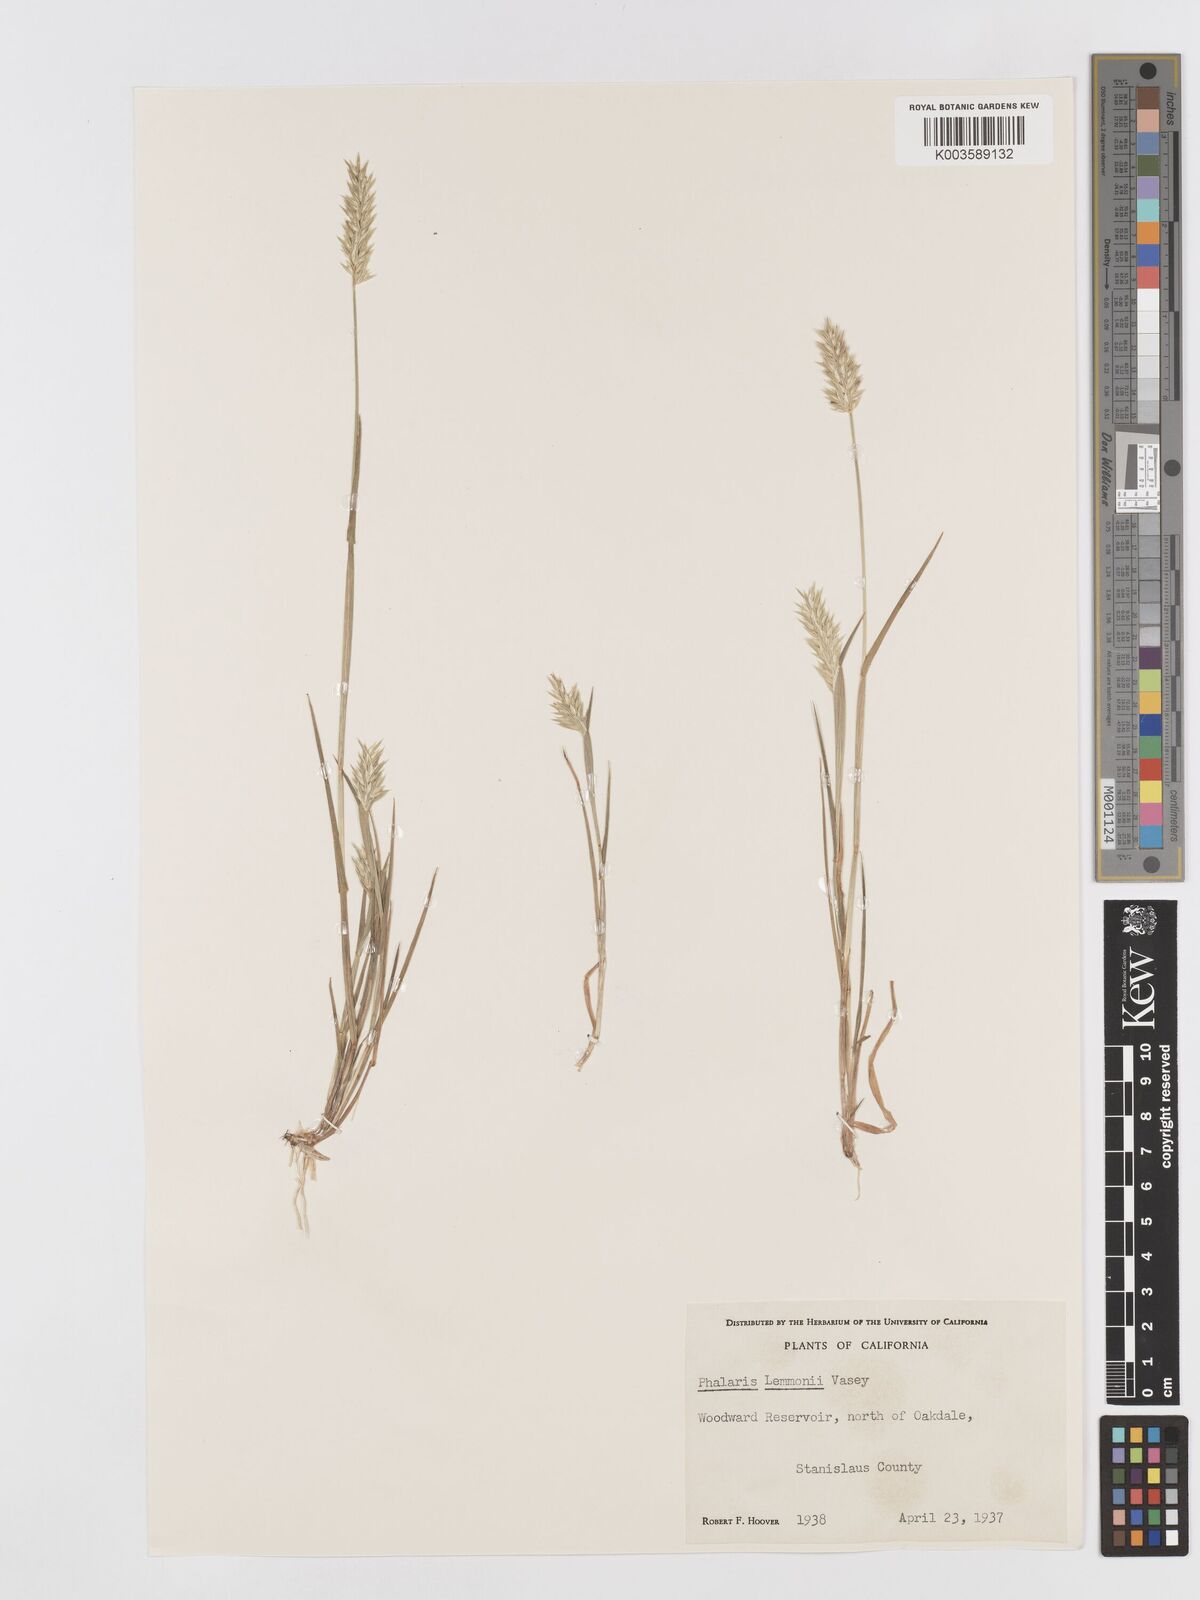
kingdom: Plantae
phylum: Tracheophyta
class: Liliopsida
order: Poales
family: Poaceae
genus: Phalaris
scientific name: Phalaris lemmonii
